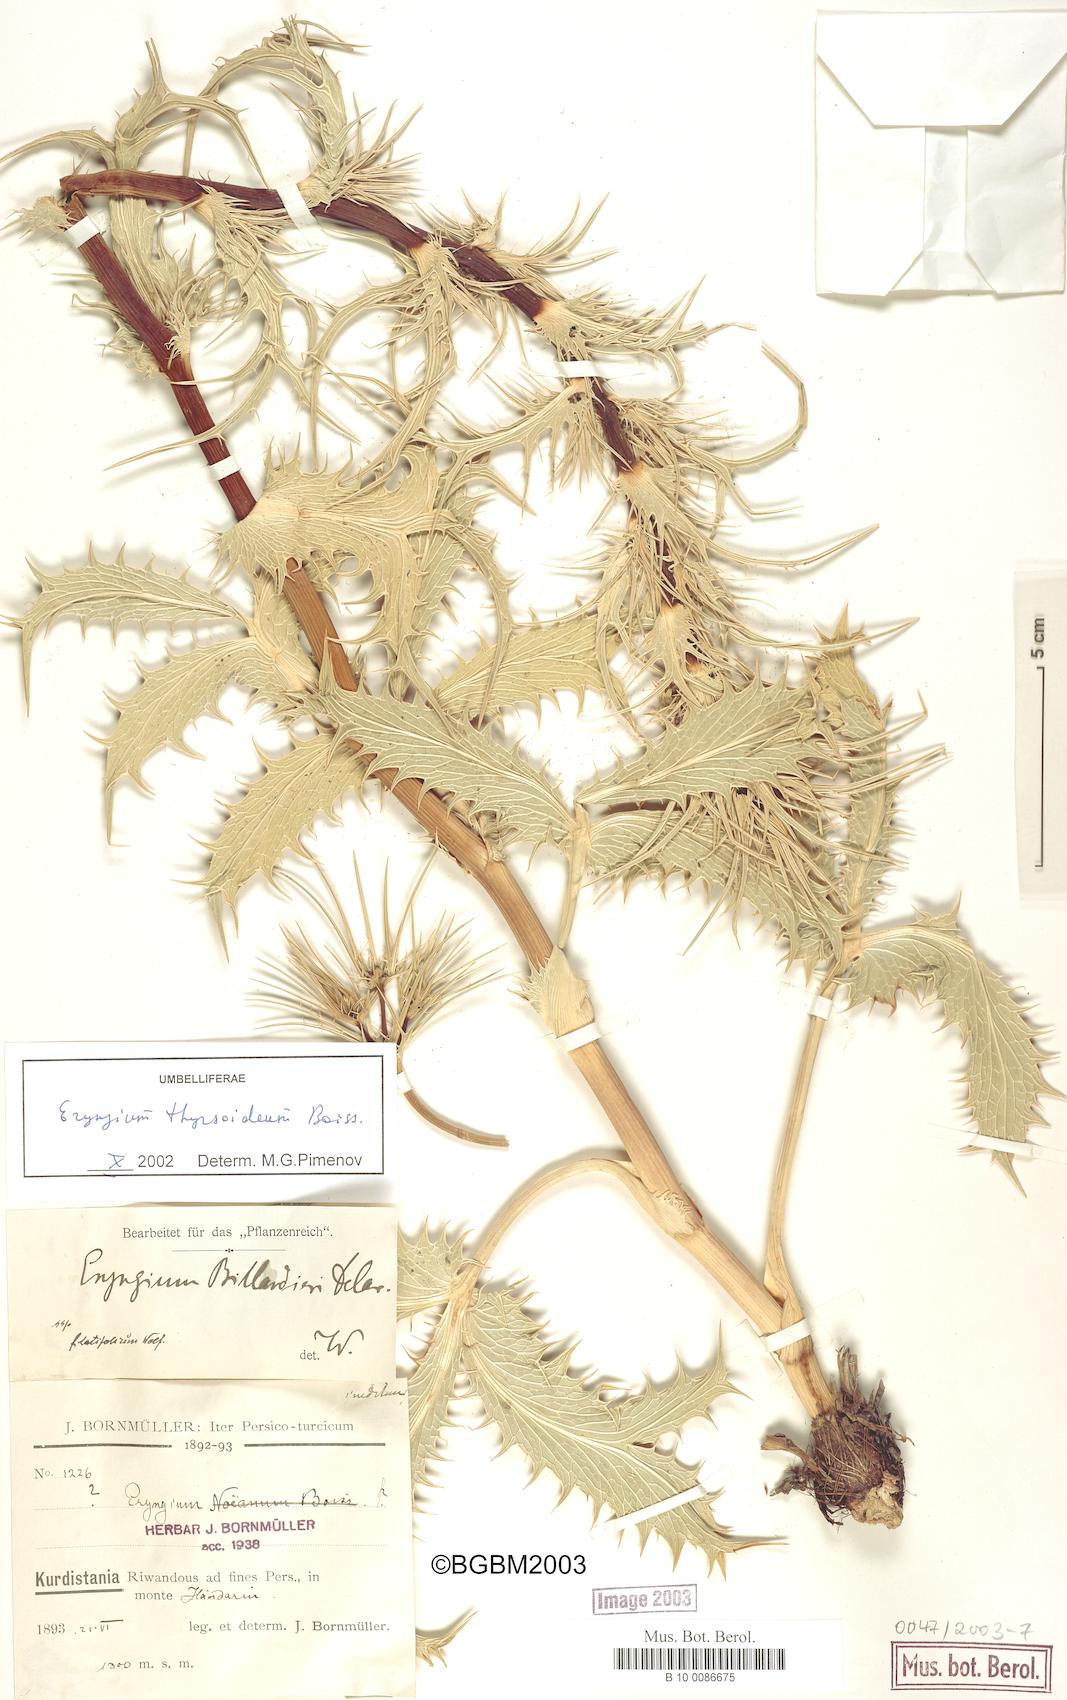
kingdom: Plantae
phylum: Tracheophyta
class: Magnoliopsida
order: Apiales
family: Apiaceae
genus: Eryngium
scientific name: Eryngium thyrsoideum
